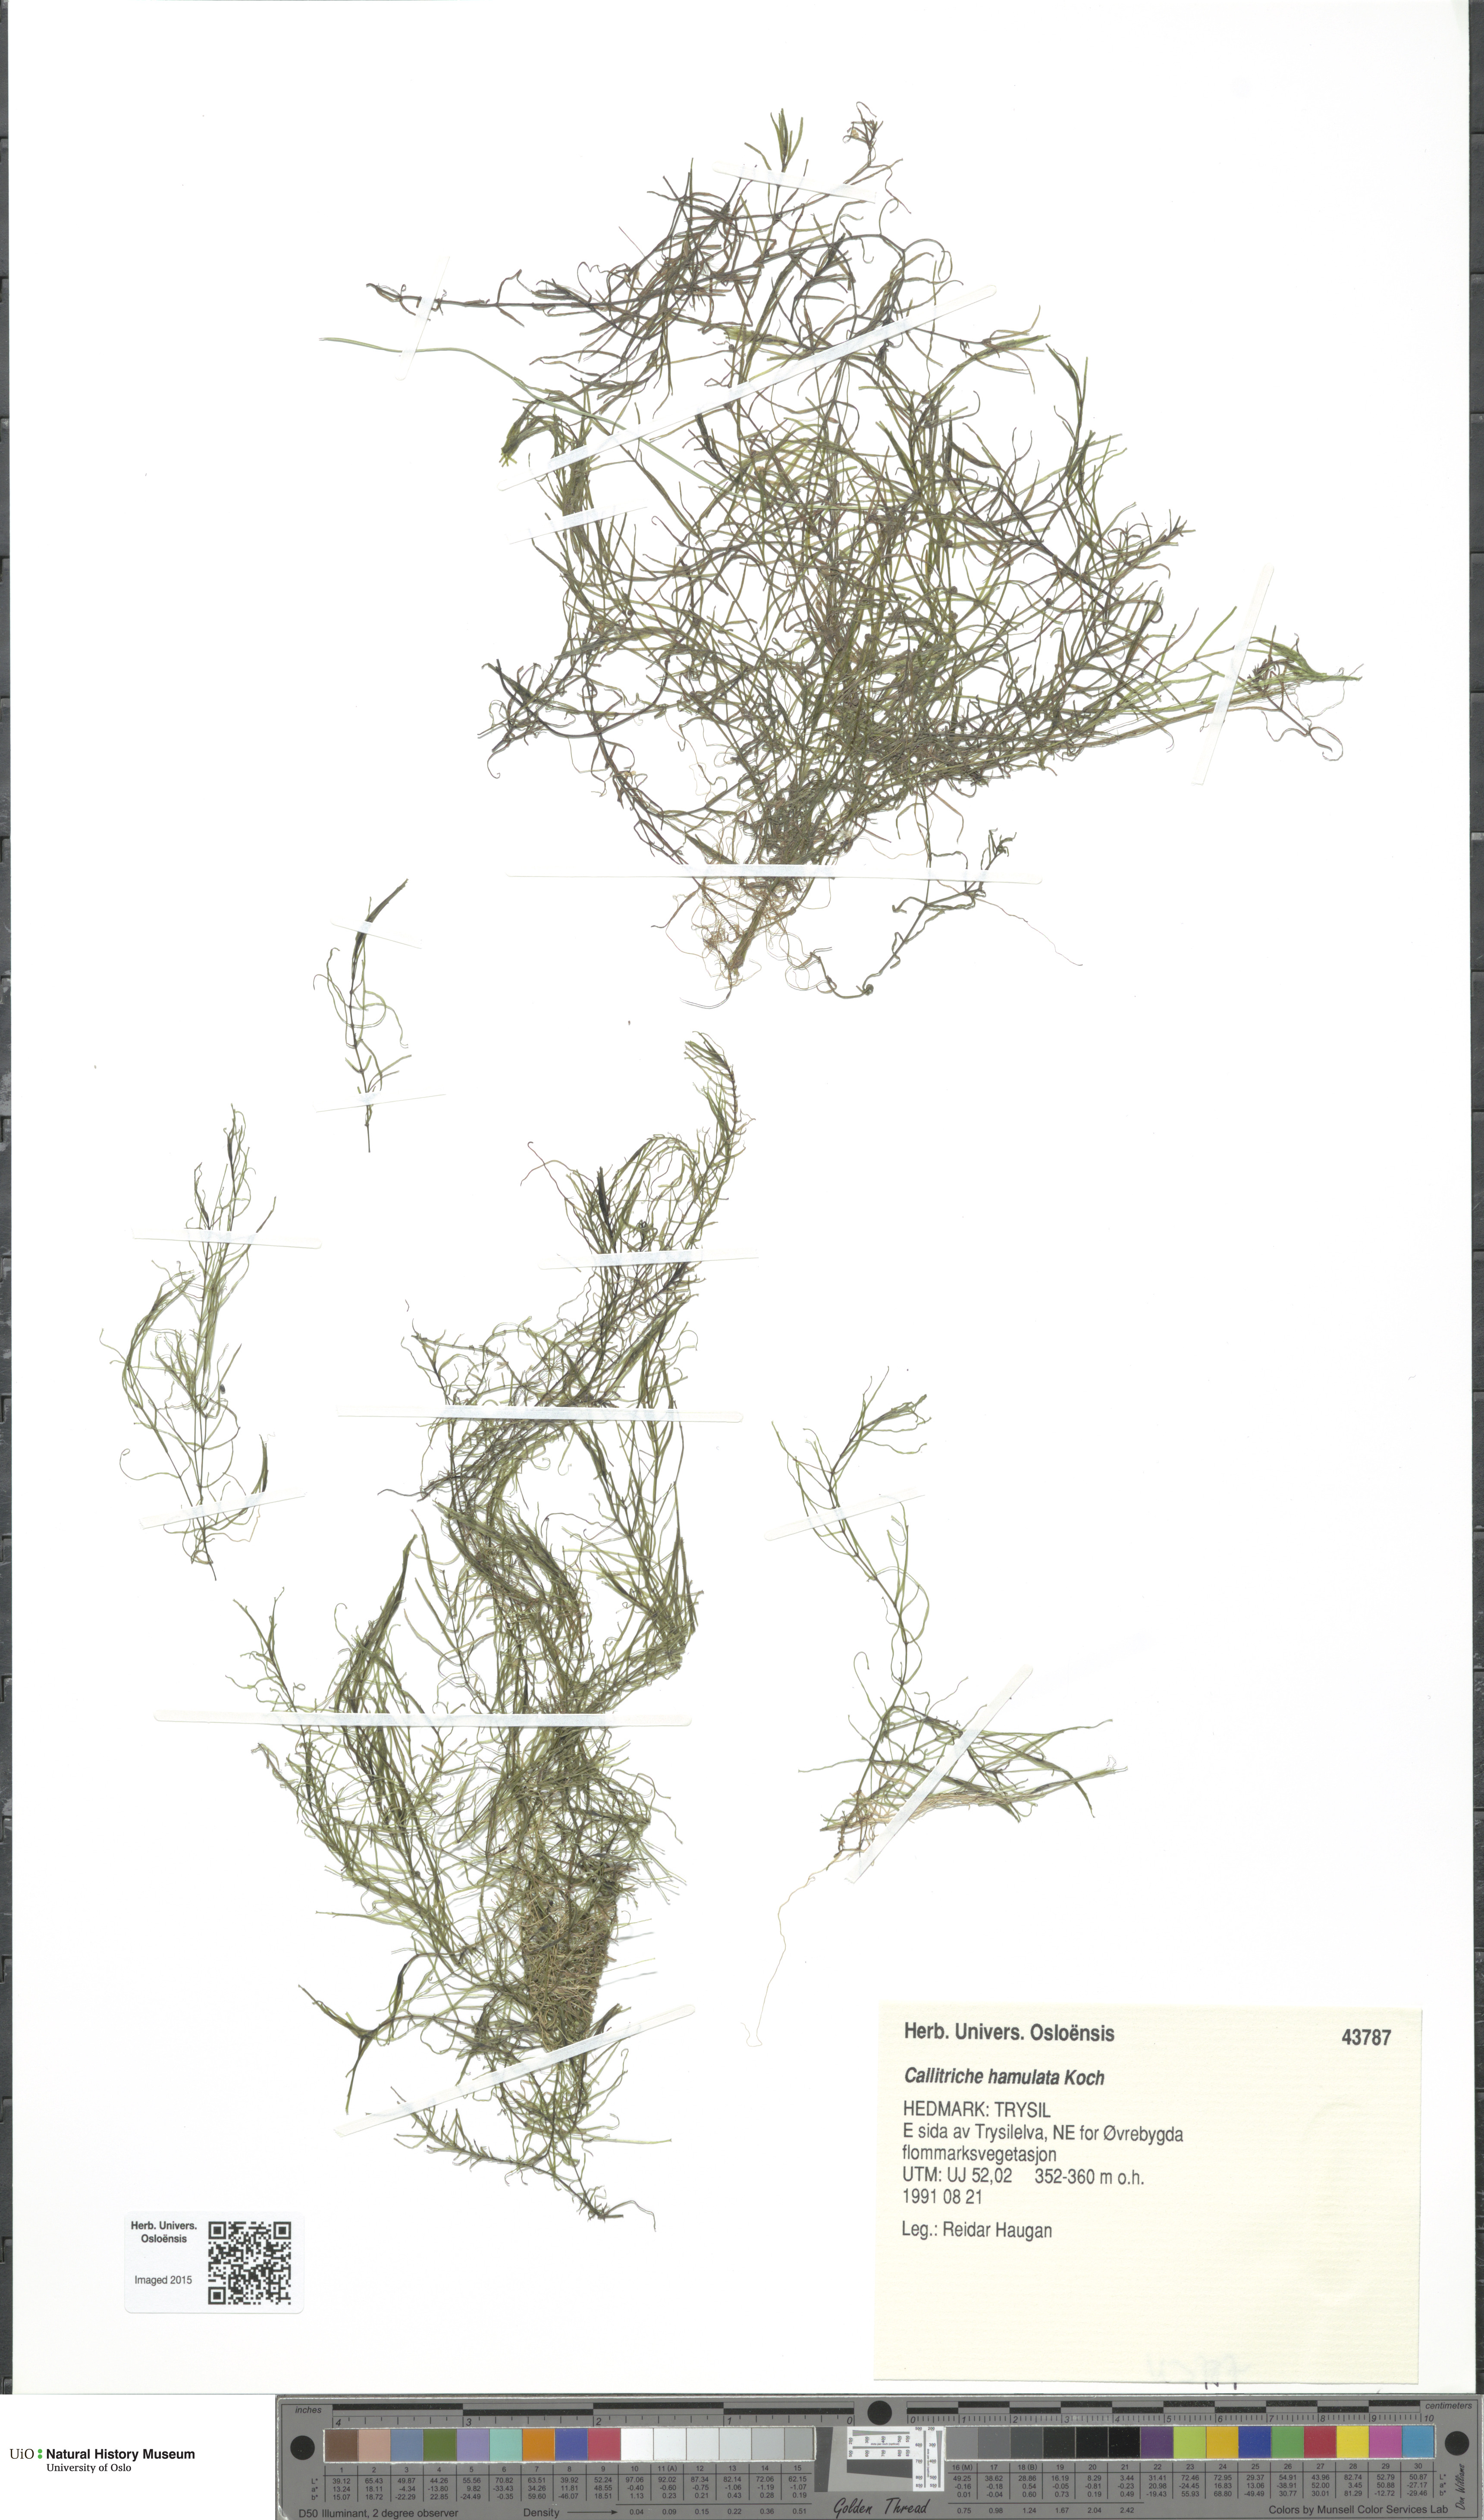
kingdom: Plantae
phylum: Tracheophyta
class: Magnoliopsida
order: Lamiales
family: Plantaginaceae
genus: Callitriche
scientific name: Callitriche hamulata
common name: Intermediate water-starwort
